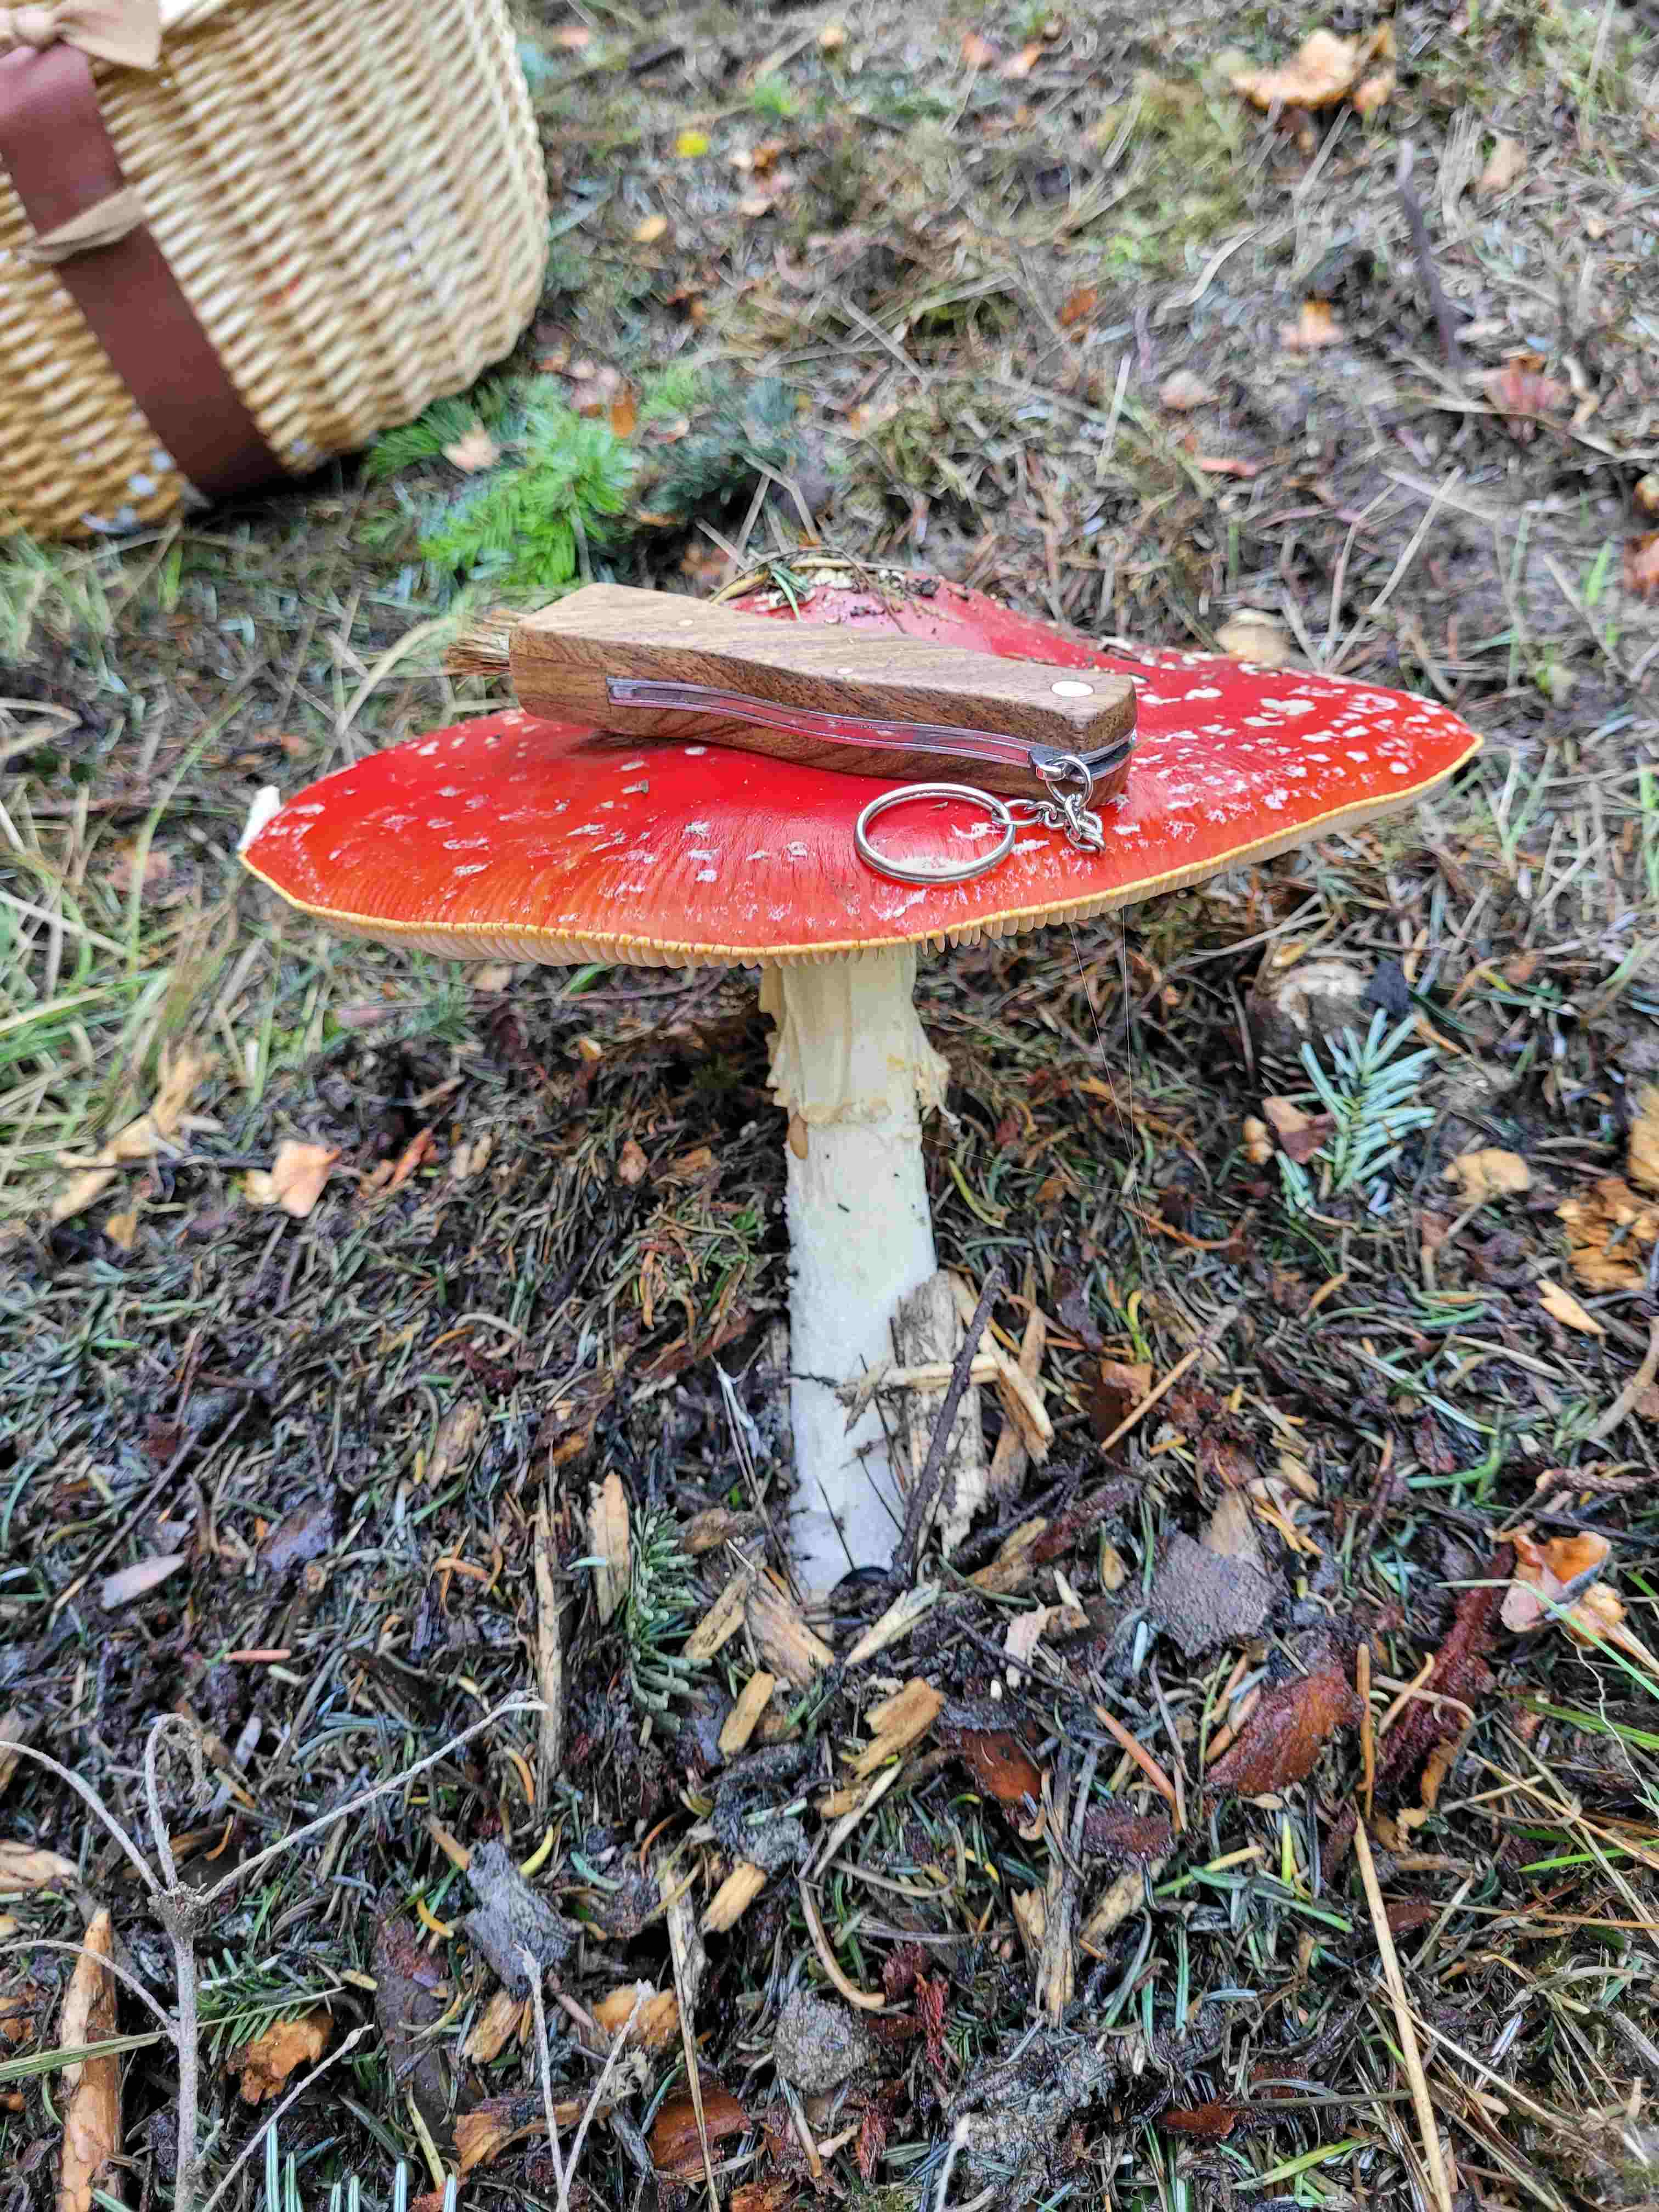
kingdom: Fungi
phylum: Basidiomycota
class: Agaricomycetes
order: Agaricales
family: Amanitaceae
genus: Amanita
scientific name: Amanita muscaria
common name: rød fluesvamp
